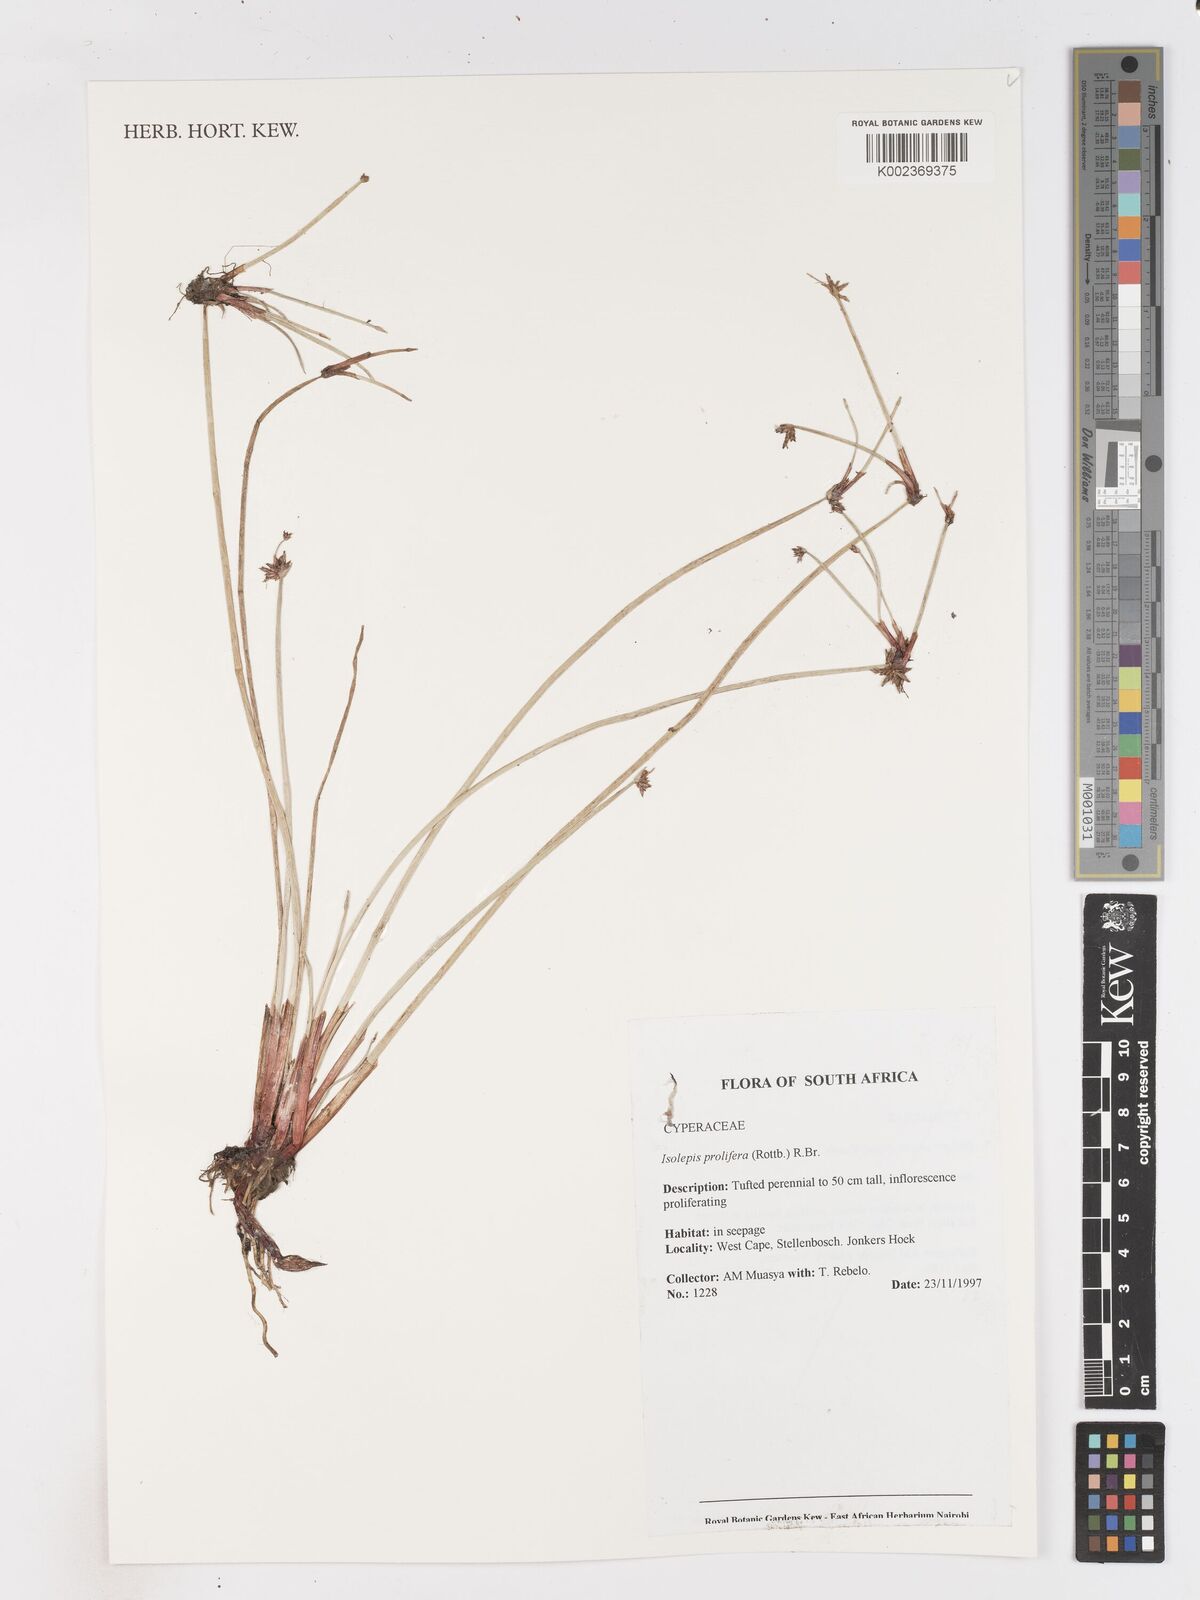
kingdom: Plantae
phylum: Tracheophyta
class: Liliopsida
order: Poales
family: Cyperaceae
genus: Isolepis
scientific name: Isolepis prolifera
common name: Proliferating bulrush
